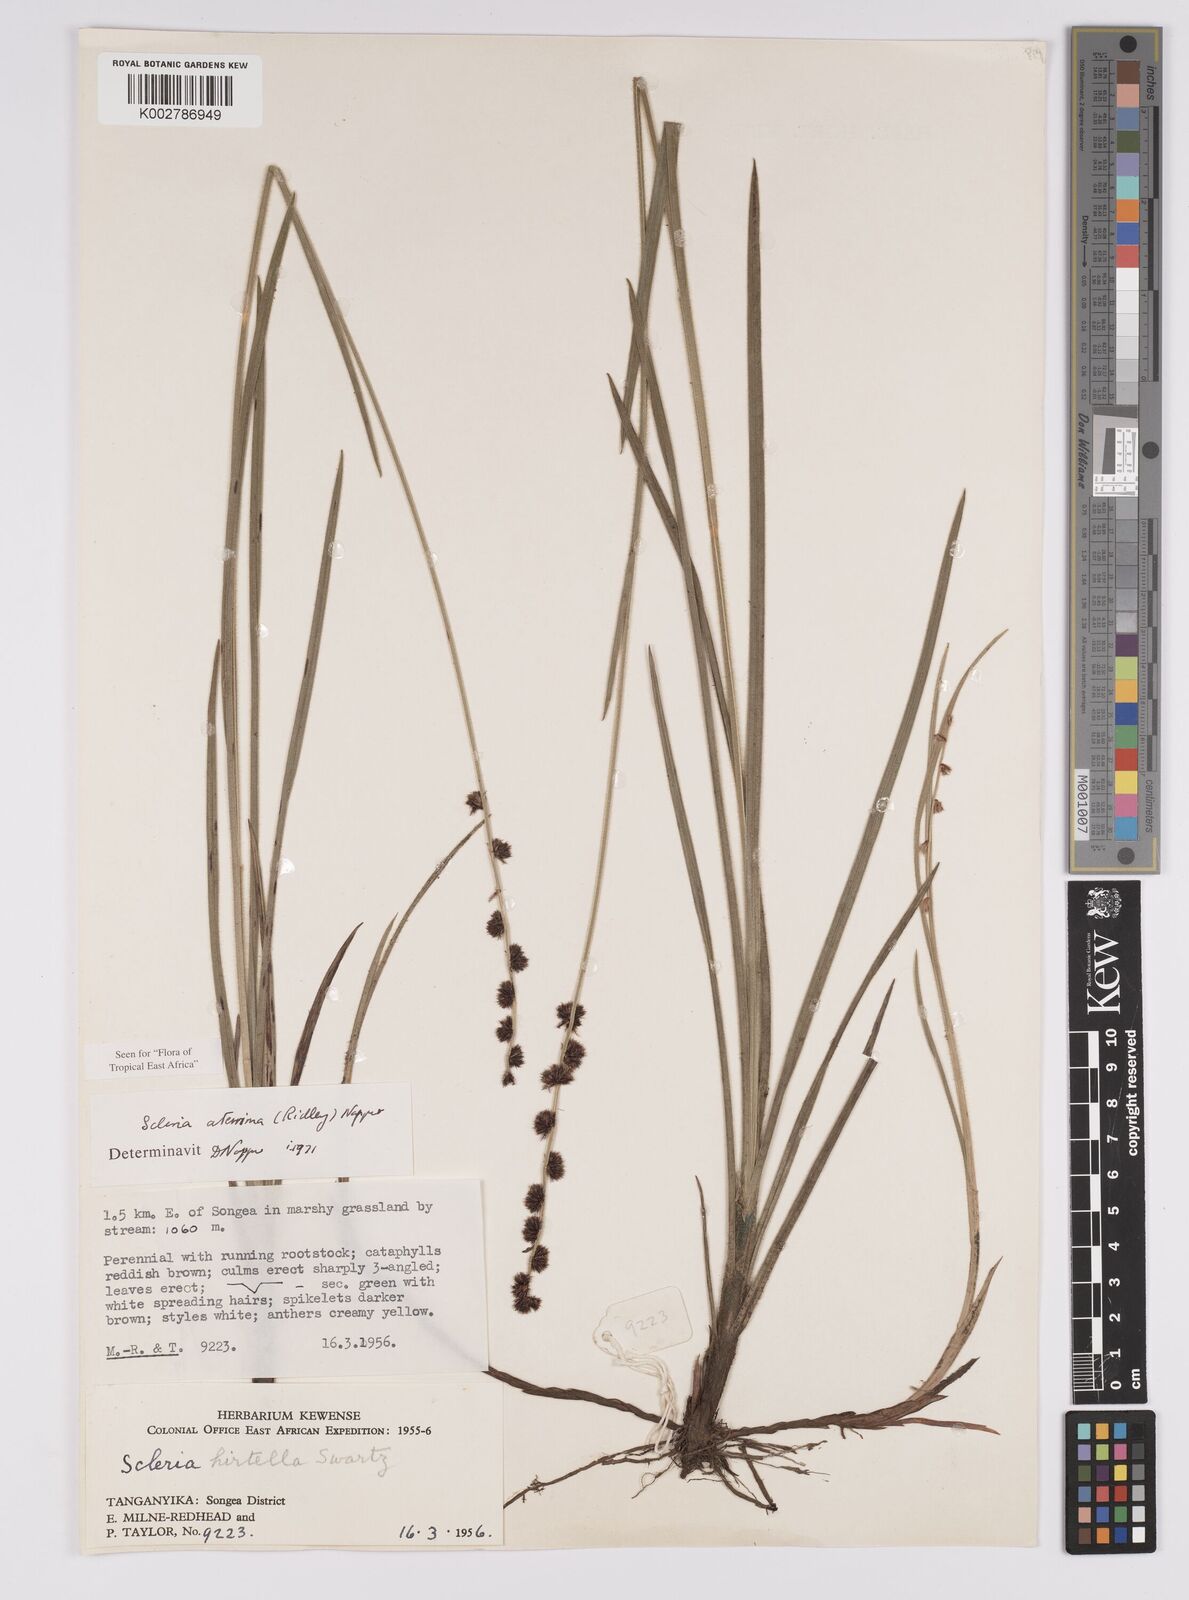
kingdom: Plantae
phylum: Tracheophyta
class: Liliopsida
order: Poales
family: Cyperaceae
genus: Scleria
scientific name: Scleria catophylla
